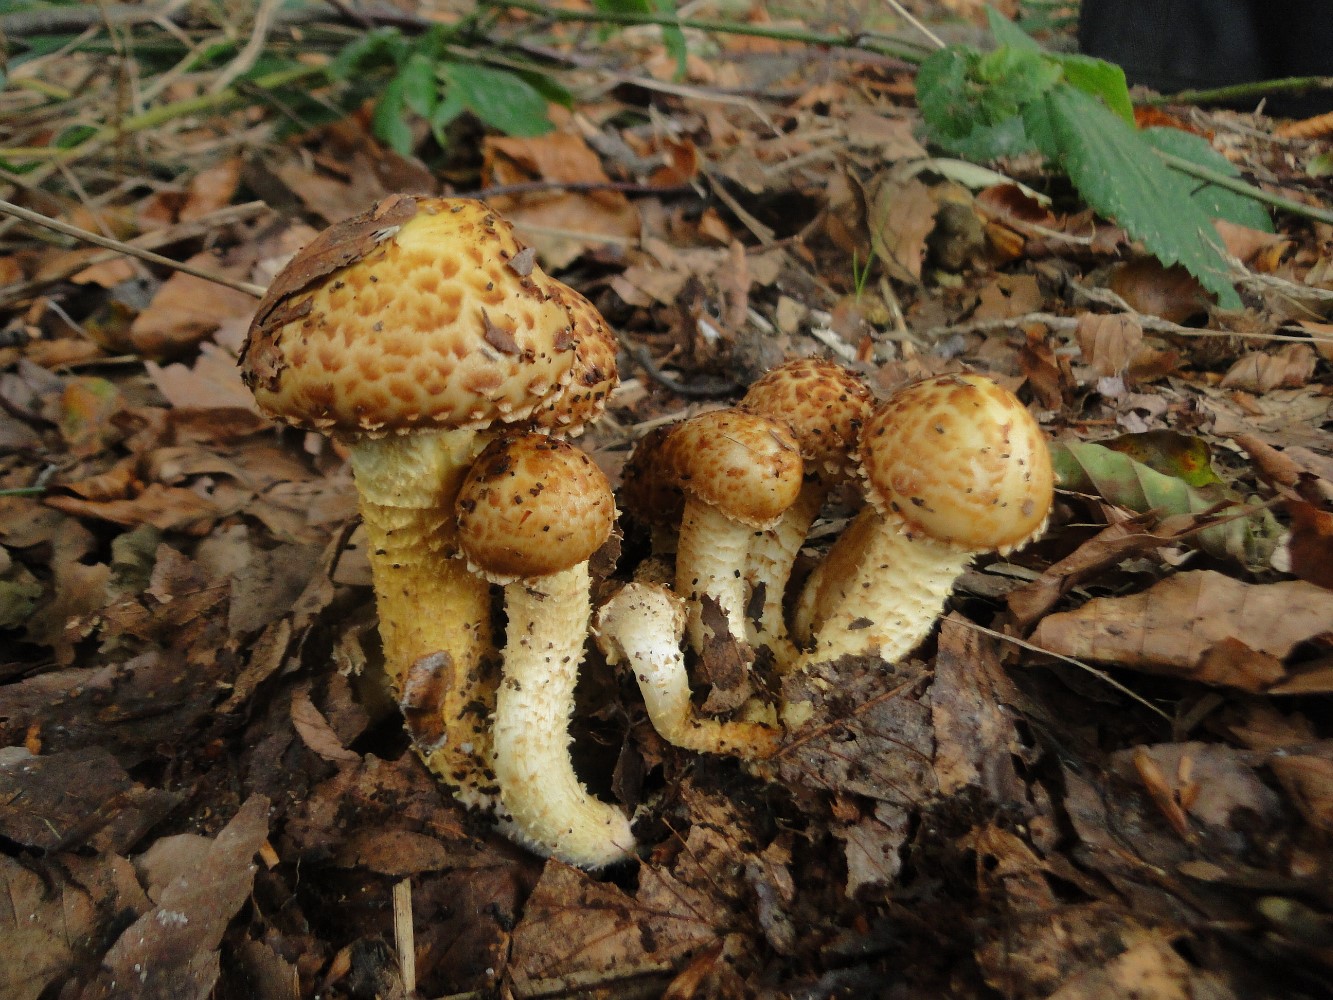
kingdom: Fungi
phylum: Basidiomycota
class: Agaricomycetes
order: Agaricales
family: Strophariaceae
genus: Pholiota
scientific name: Pholiota squarrosa
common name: krumskællet skælhat
